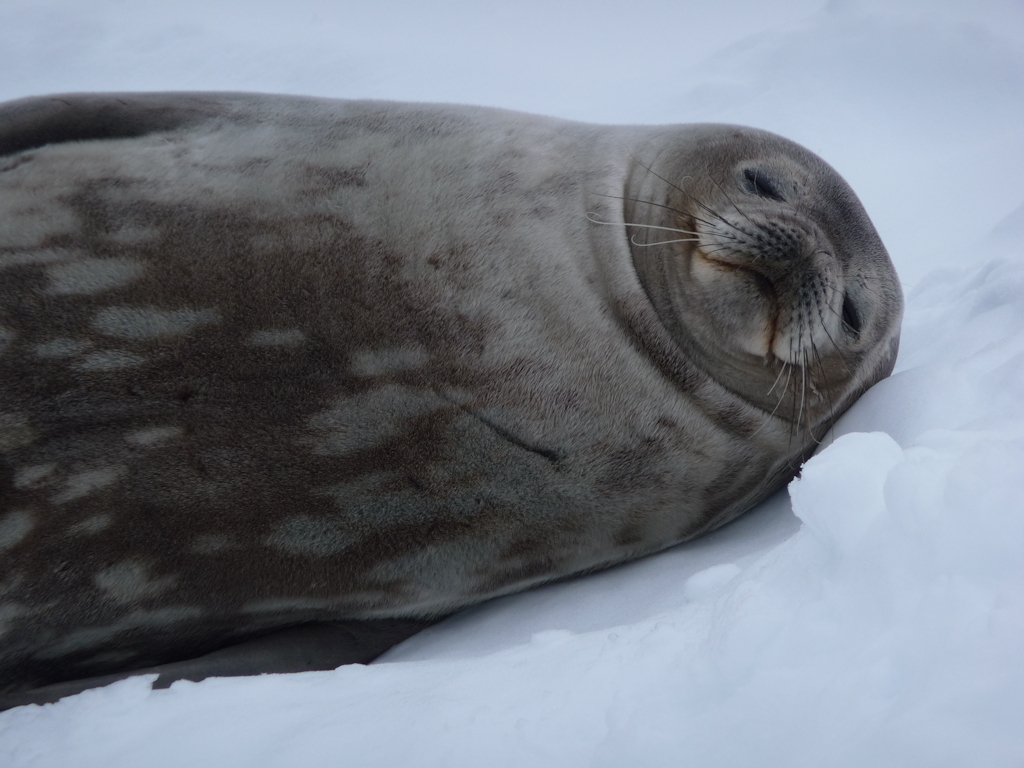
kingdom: Animalia
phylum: Chordata
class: Mammalia
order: Carnivora
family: Phocidae
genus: Leptonychotes
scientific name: Leptonychotes weddellii
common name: Weddell Seal
